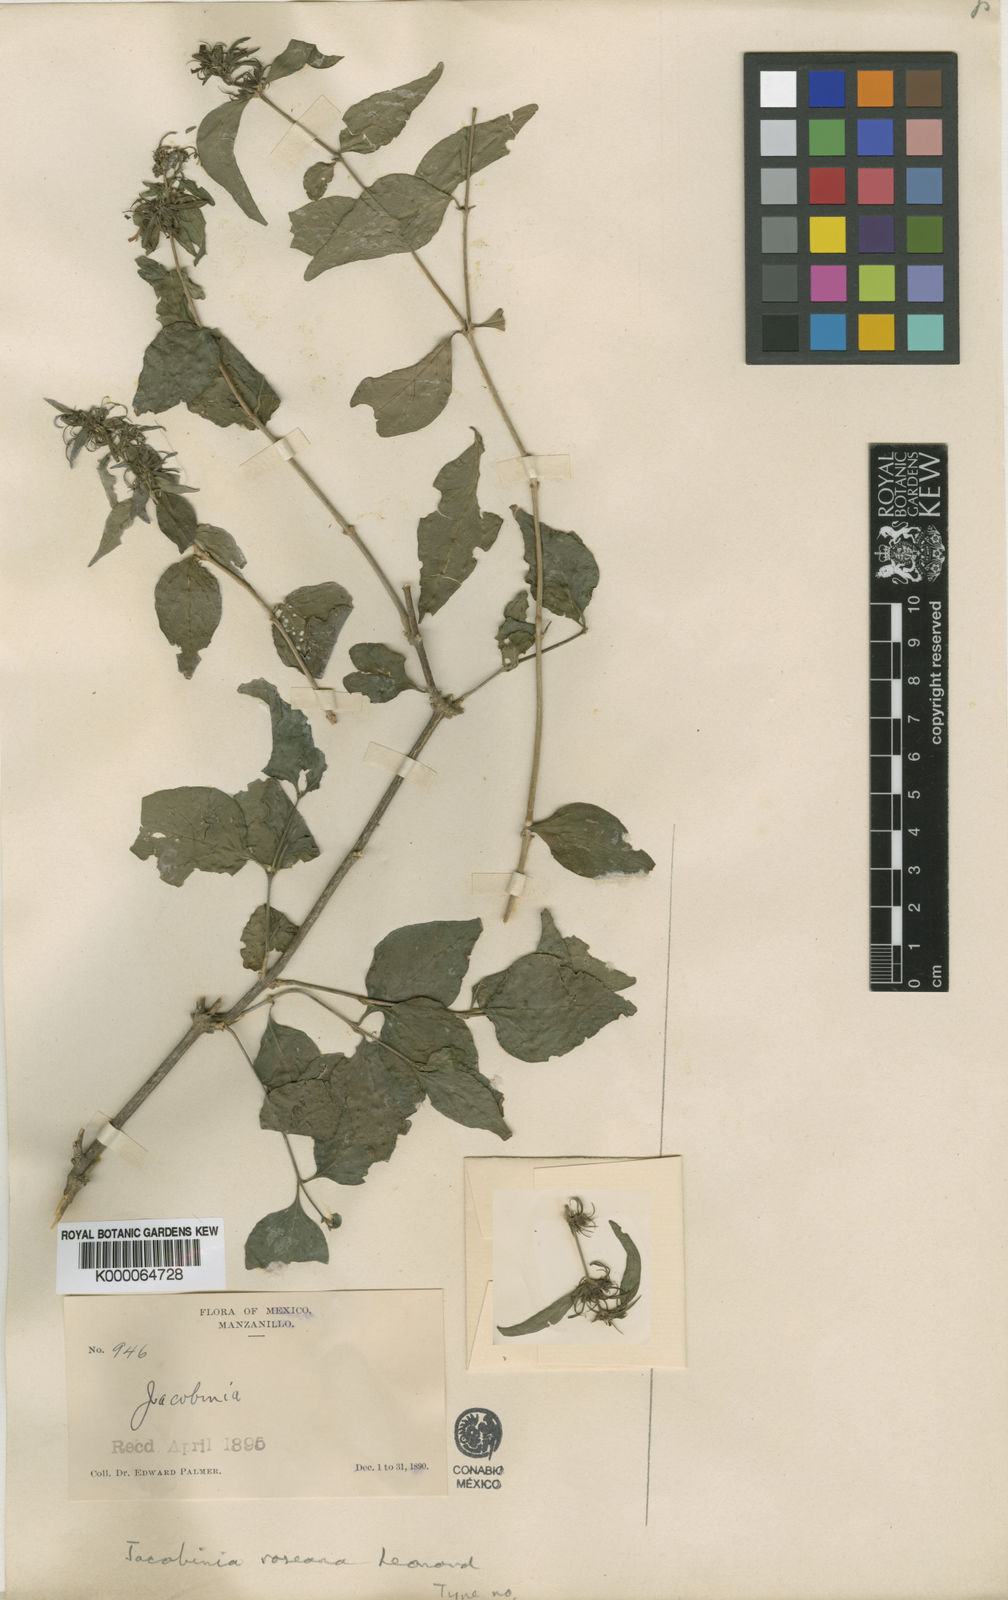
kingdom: Plantae
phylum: Tracheophyta
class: Magnoliopsida
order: Lamiales
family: Acanthaceae
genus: Justicia
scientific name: Justicia
